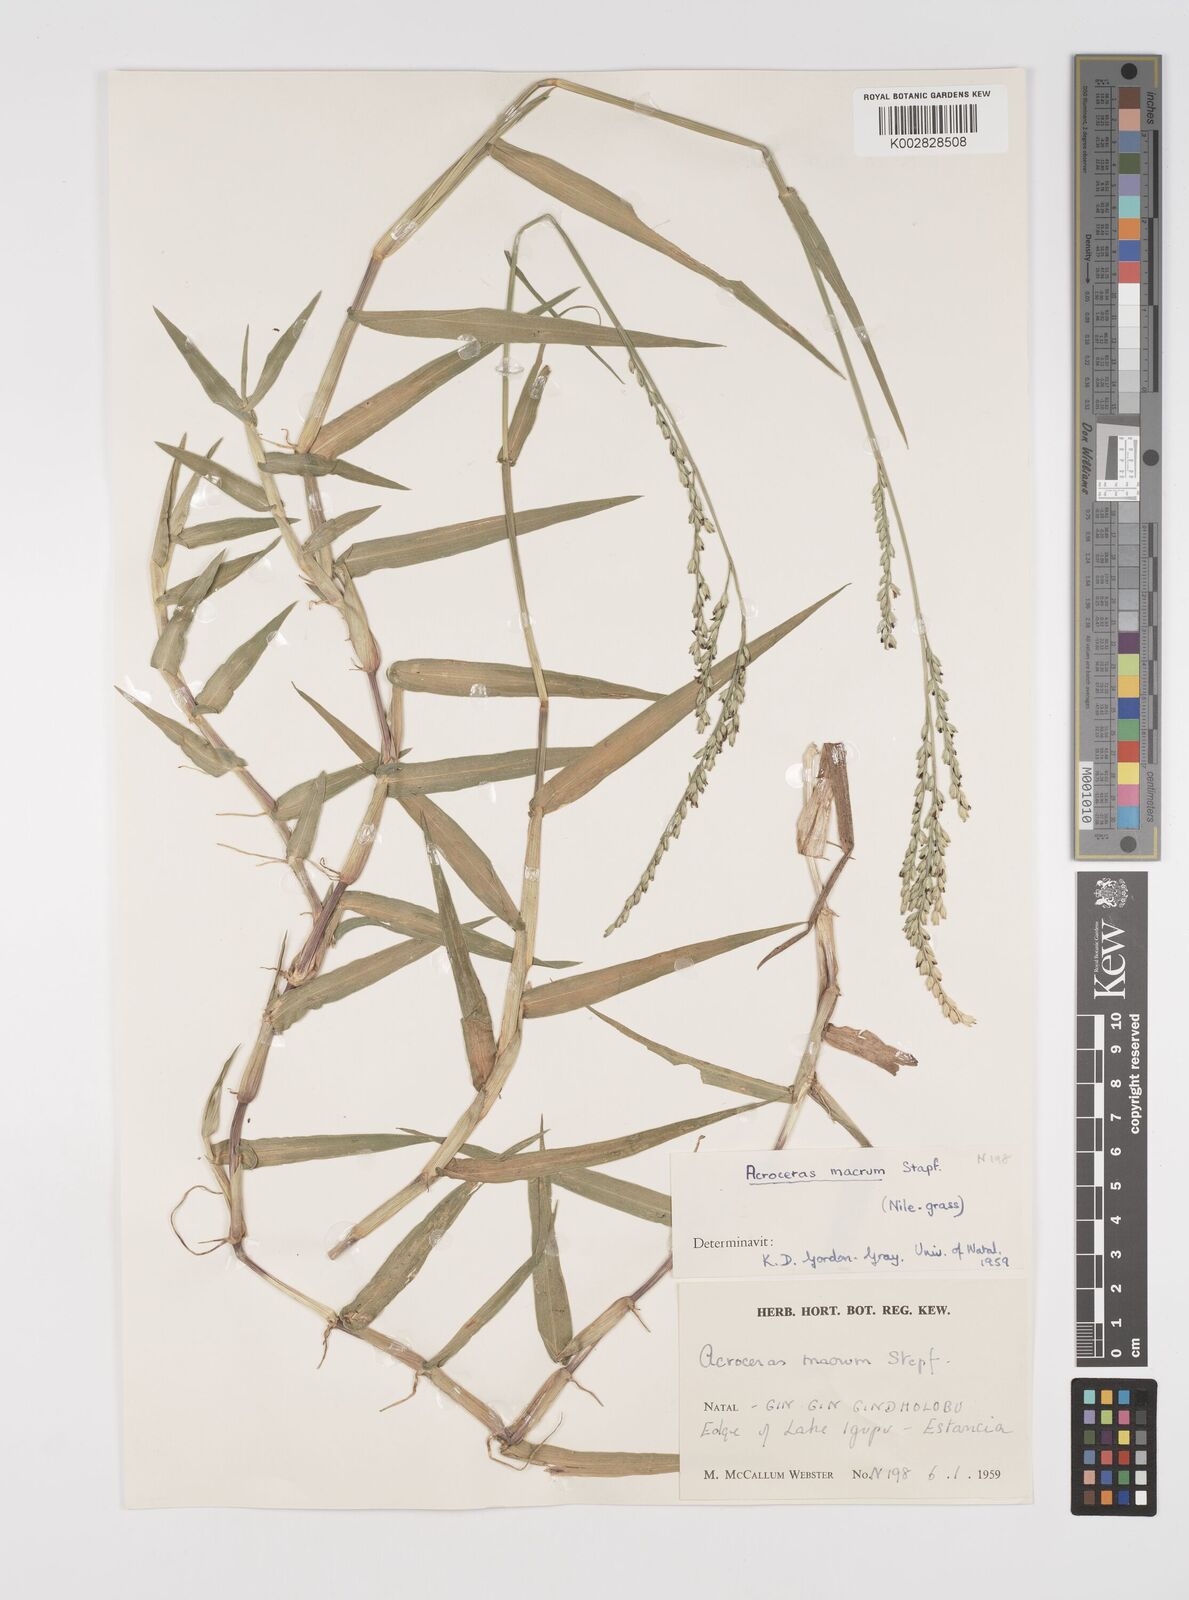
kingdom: Plantae
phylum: Tracheophyta
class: Liliopsida
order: Poales
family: Poaceae
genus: Acroceras
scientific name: Acroceras macrum
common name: Nyl grass
